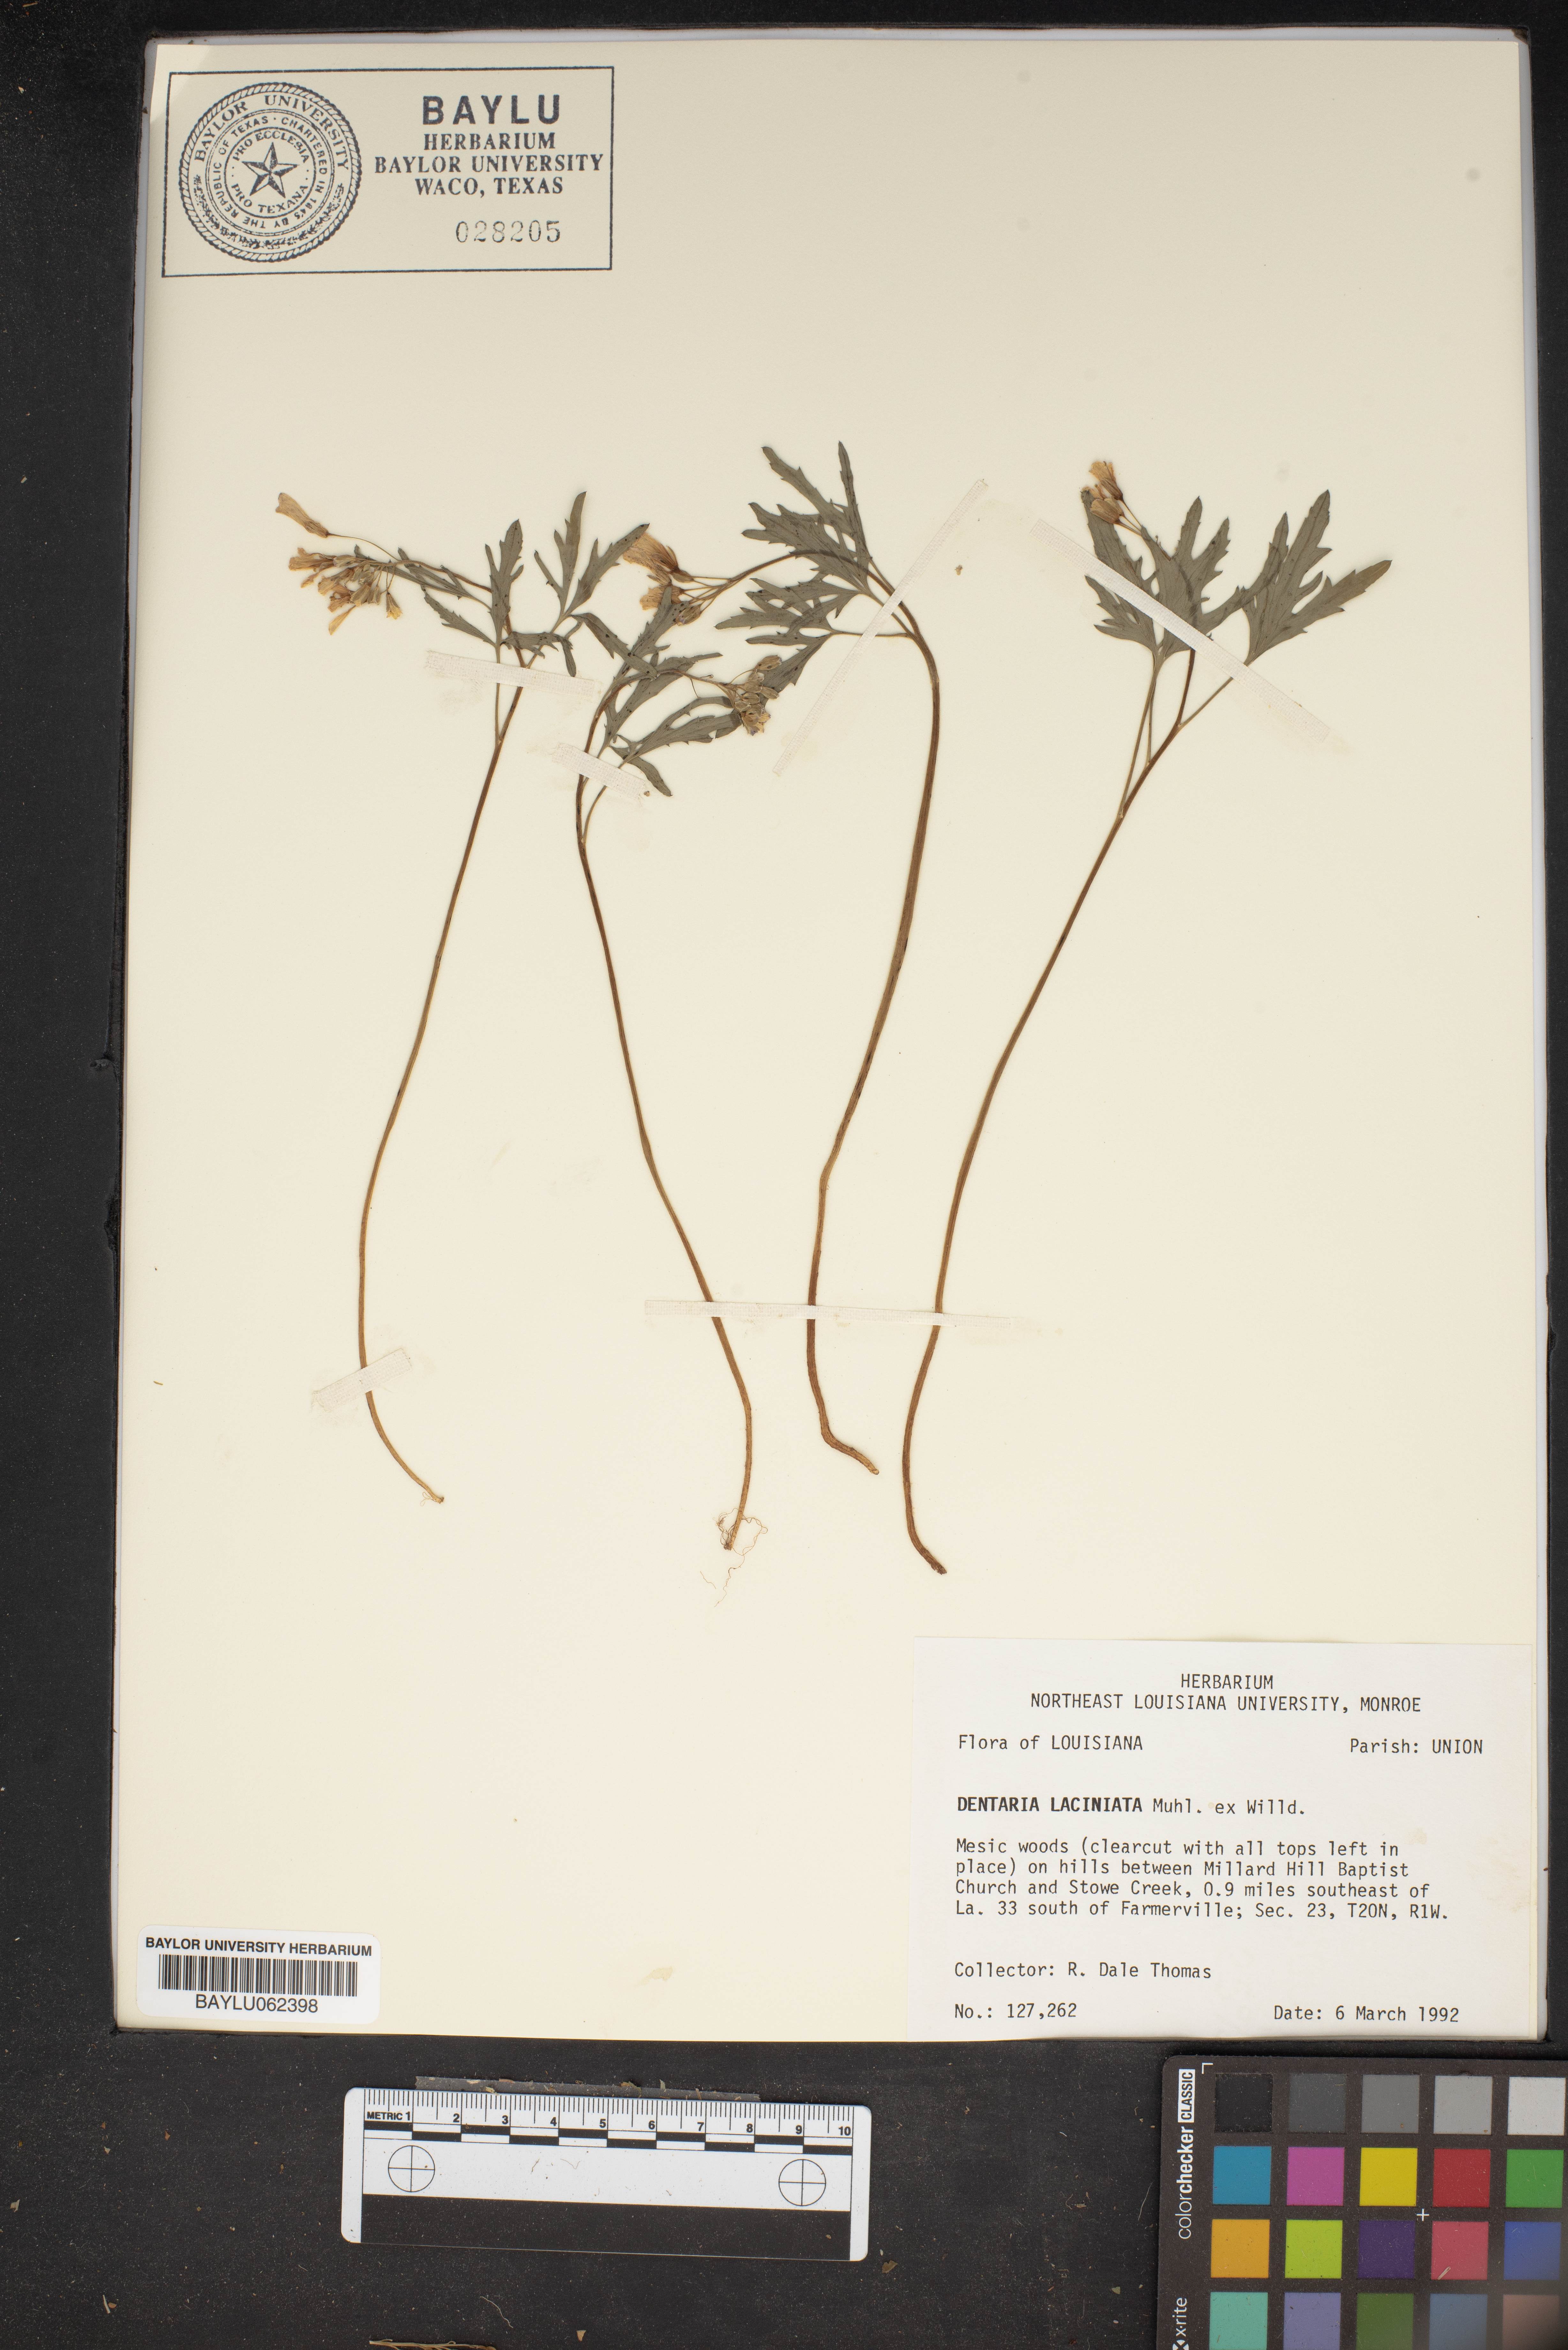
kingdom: Plantae
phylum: Tracheophyta
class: Magnoliopsida
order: Brassicales
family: Brassicaceae
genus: Cardamine
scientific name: Cardamine concatenata
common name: Cut-leaf toothcup
